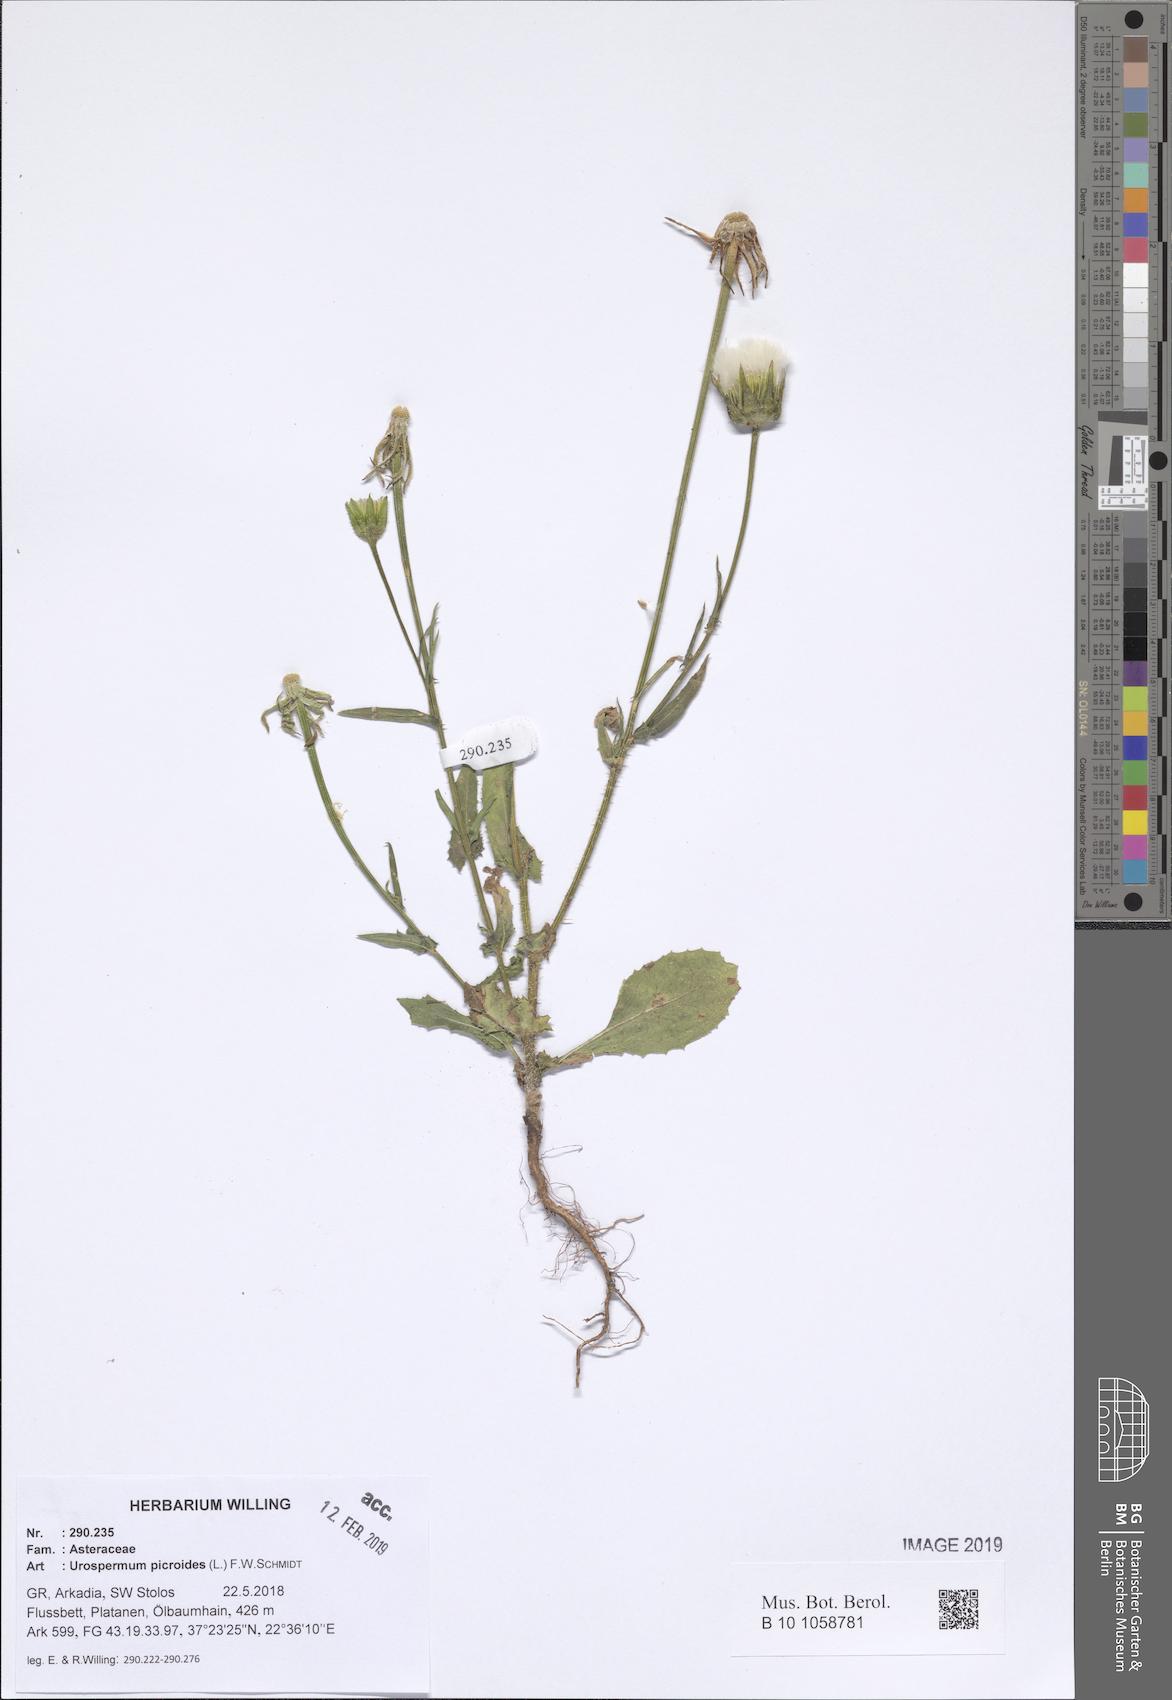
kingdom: Plantae
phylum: Tracheophyta
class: Magnoliopsida
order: Asterales
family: Asteraceae
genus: Urospermum
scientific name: Urospermum picroides
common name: False hawkbit
